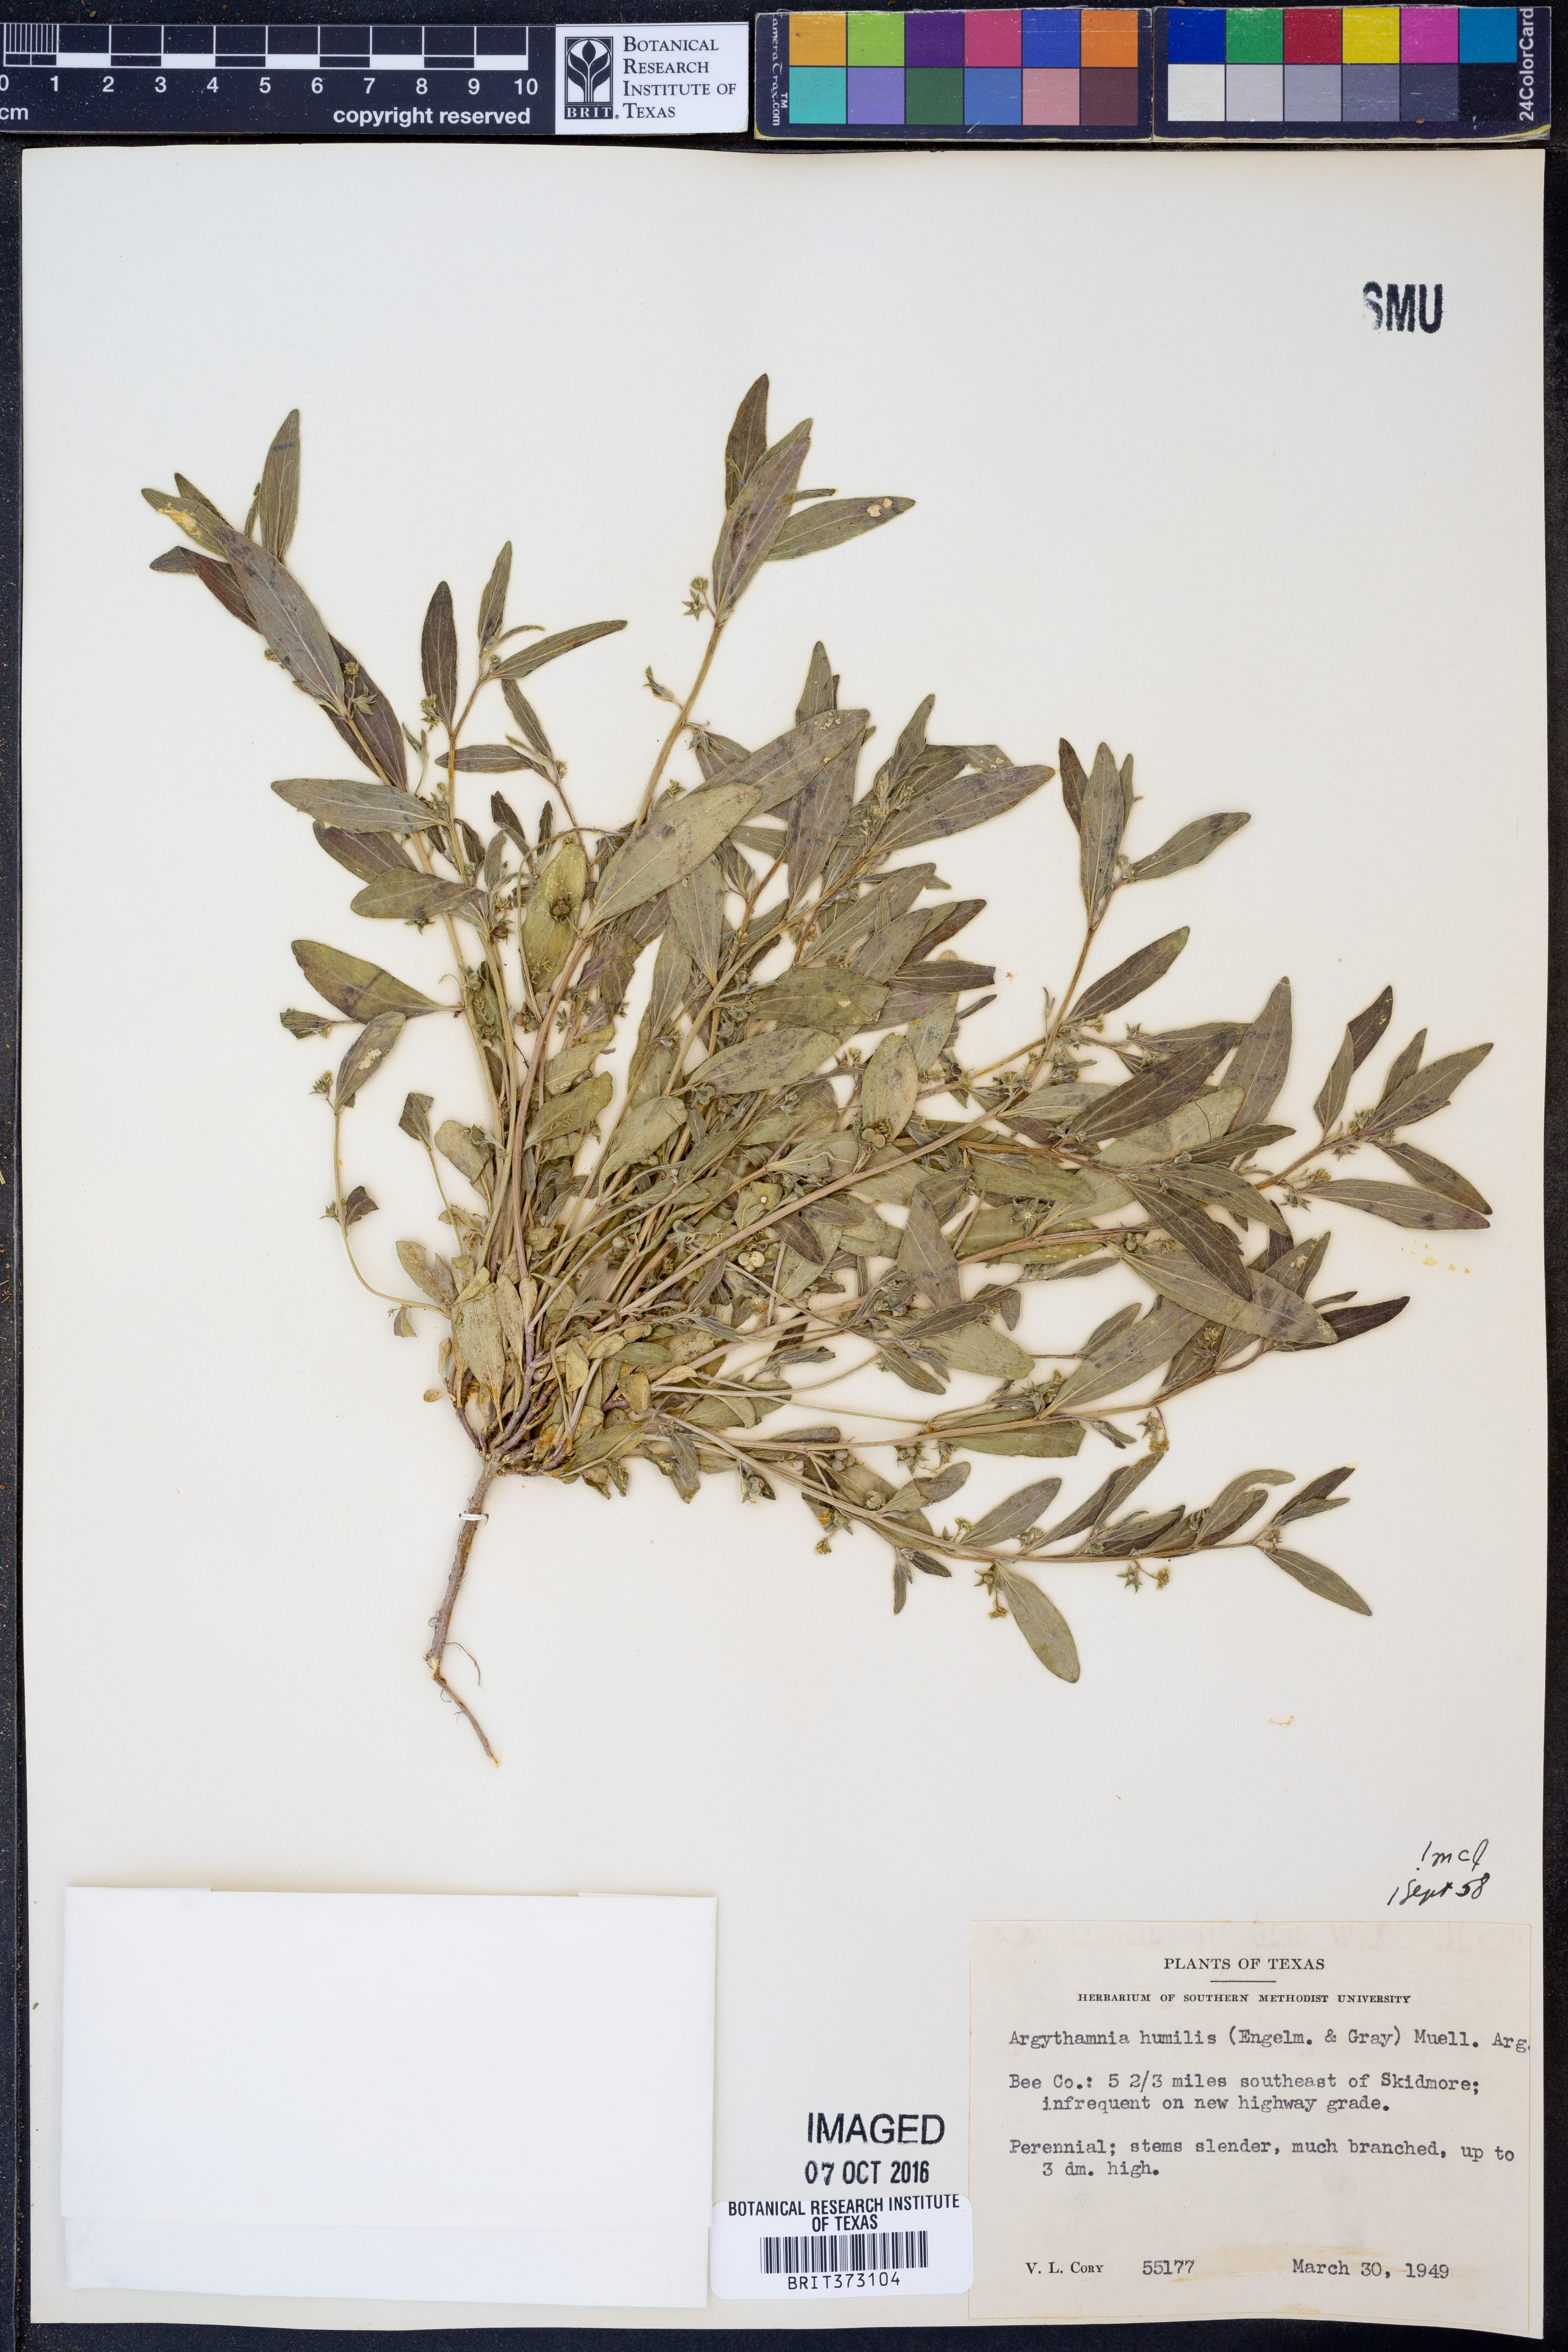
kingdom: Plantae
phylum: Tracheophyta
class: Magnoliopsida
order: Malpighiales
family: Euphorbiaceae
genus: Ditaxis
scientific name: Ditaxis humilis
